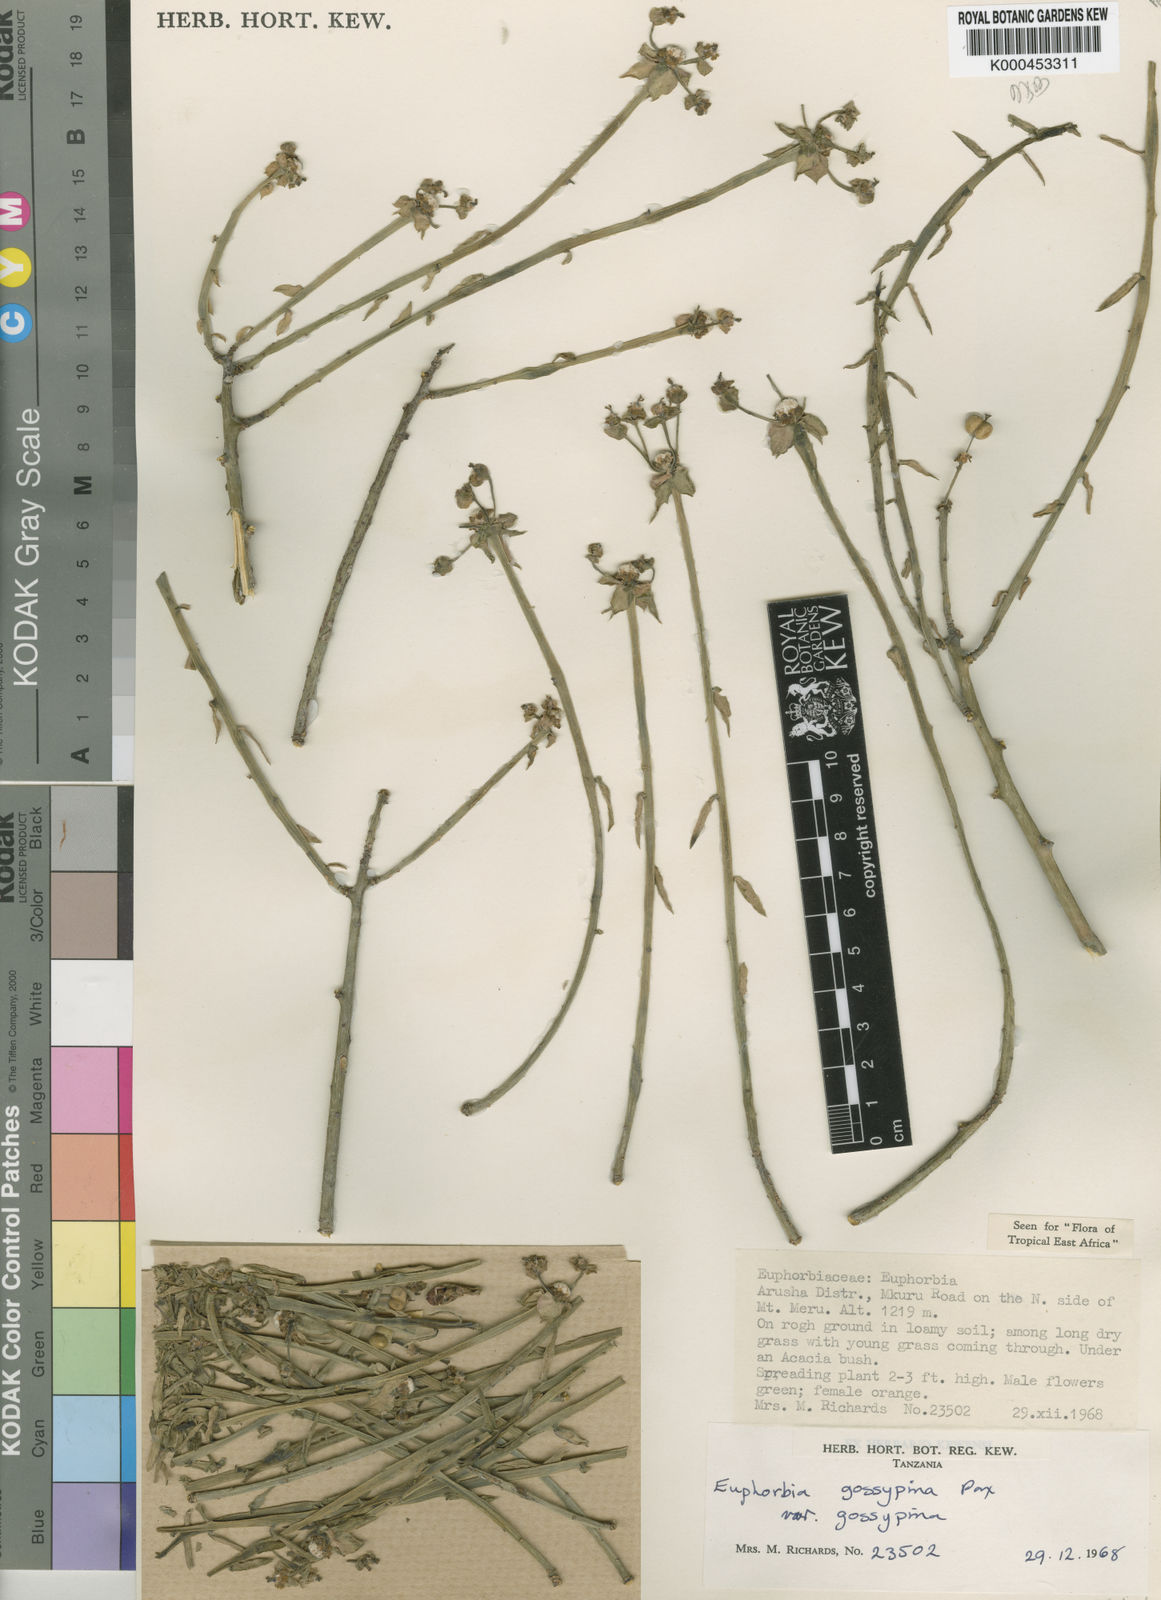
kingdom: Plantae
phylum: Tracheophyta
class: Magnoliopsida
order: Malpighiales
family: Euphorbiaceae
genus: Euphorbia
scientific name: Euphorbia gossypina
